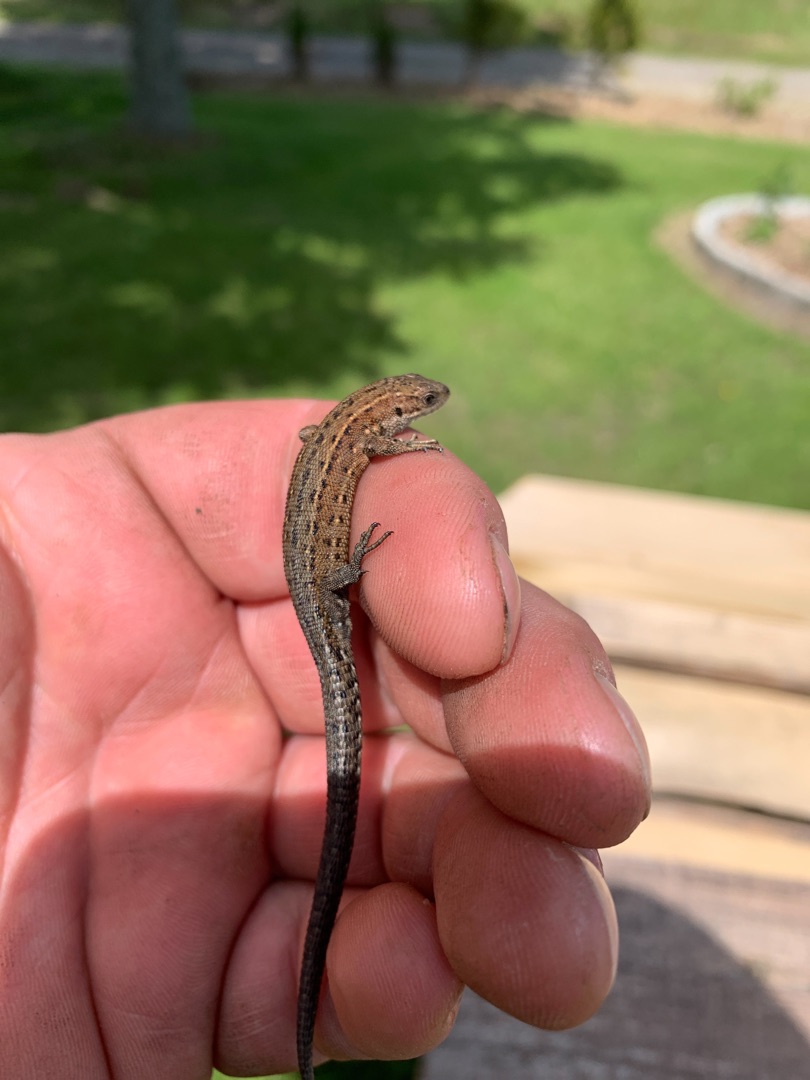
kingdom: Animalia
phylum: Chordata
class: Squamata
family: Lacertidae
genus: Zootoca
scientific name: Zootoca vivipara
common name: Skovfirben
